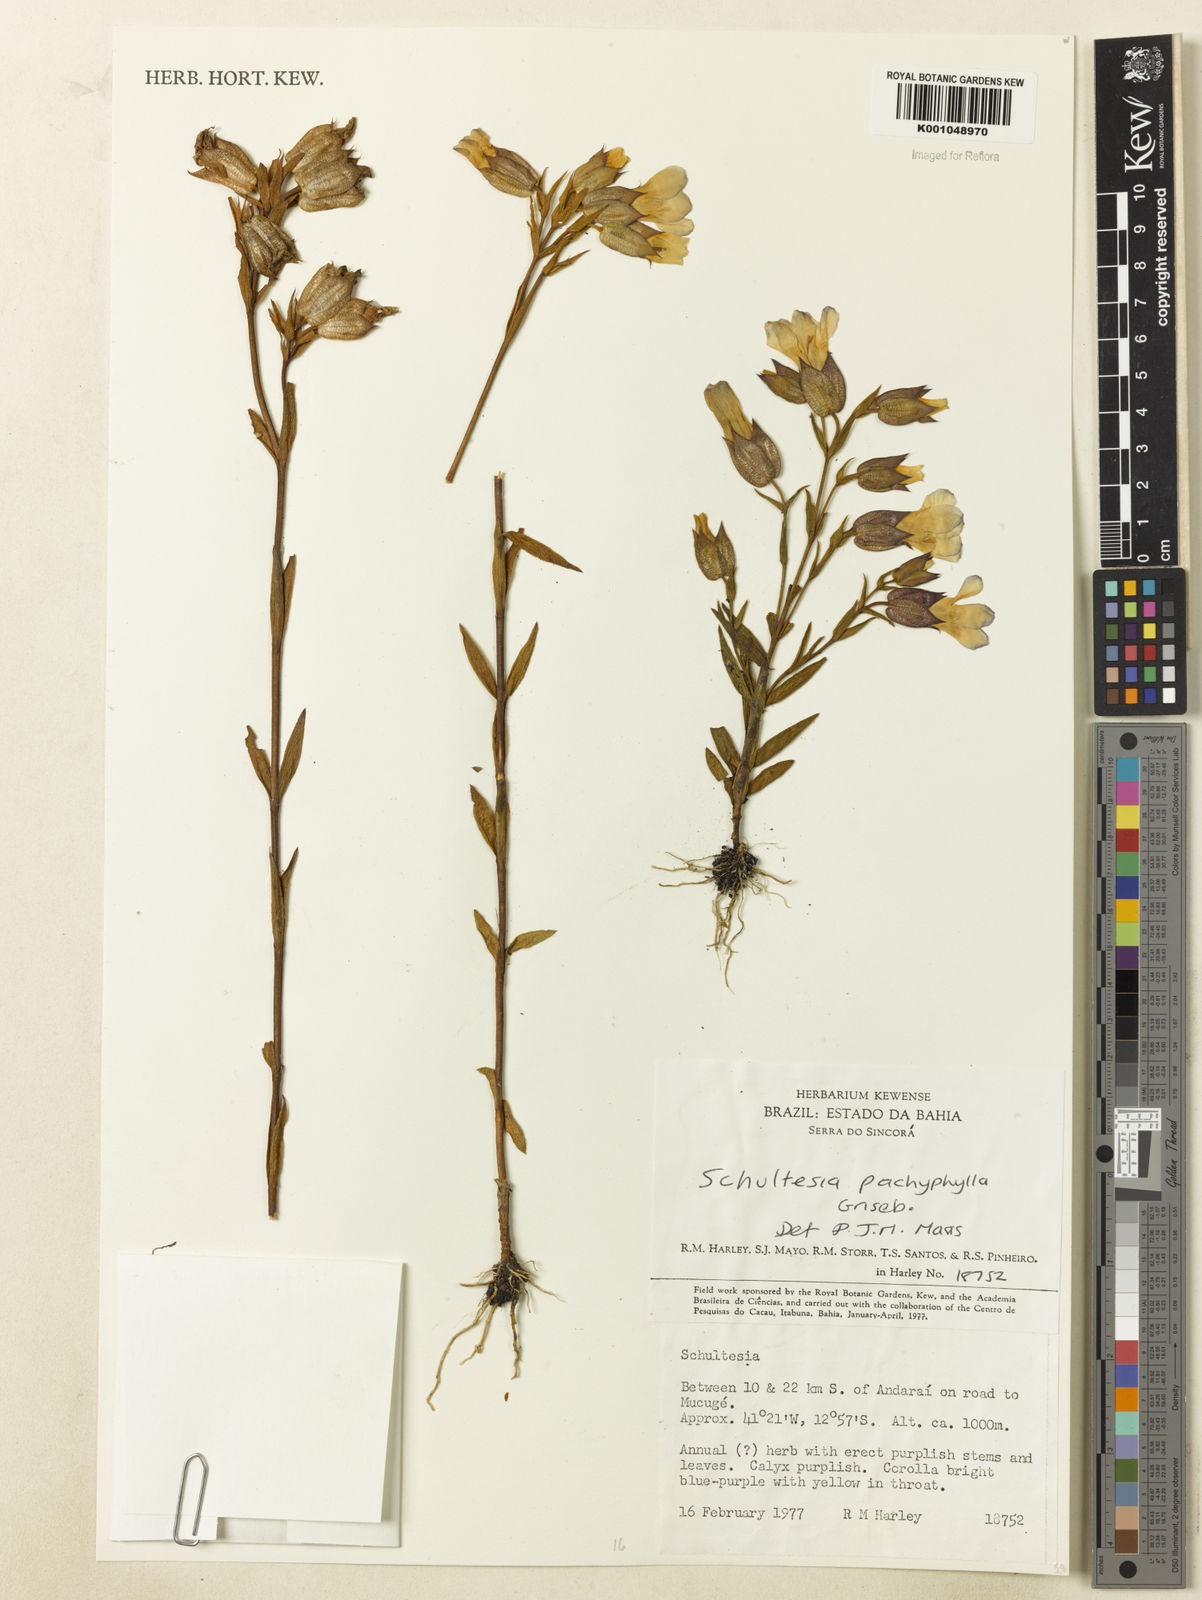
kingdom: Plantae
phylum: Tracheophyta
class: Magnoliopsida
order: Gentianales
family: Gentianaceae
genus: Schultesia
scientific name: Schultesia pachyphylla
